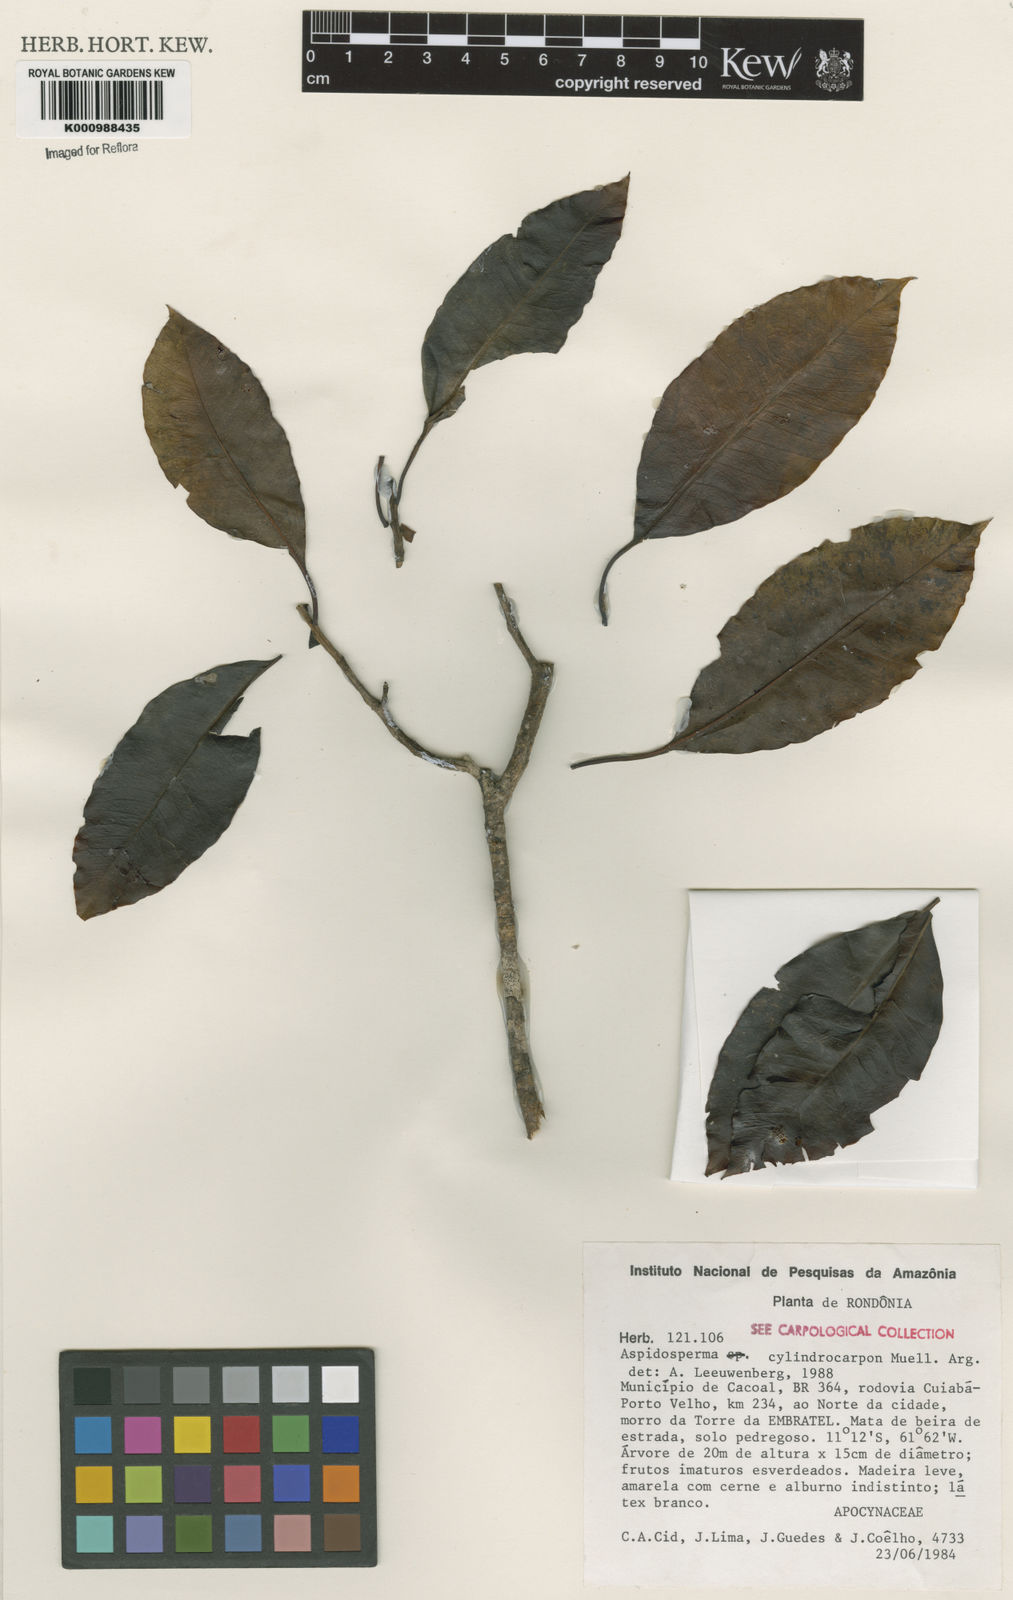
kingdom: Plantae
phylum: Tracheophyta
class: Magnoliopsida
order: Gentianales
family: Apocynaceae
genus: Aspidosperma
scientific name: Aspidosperma
